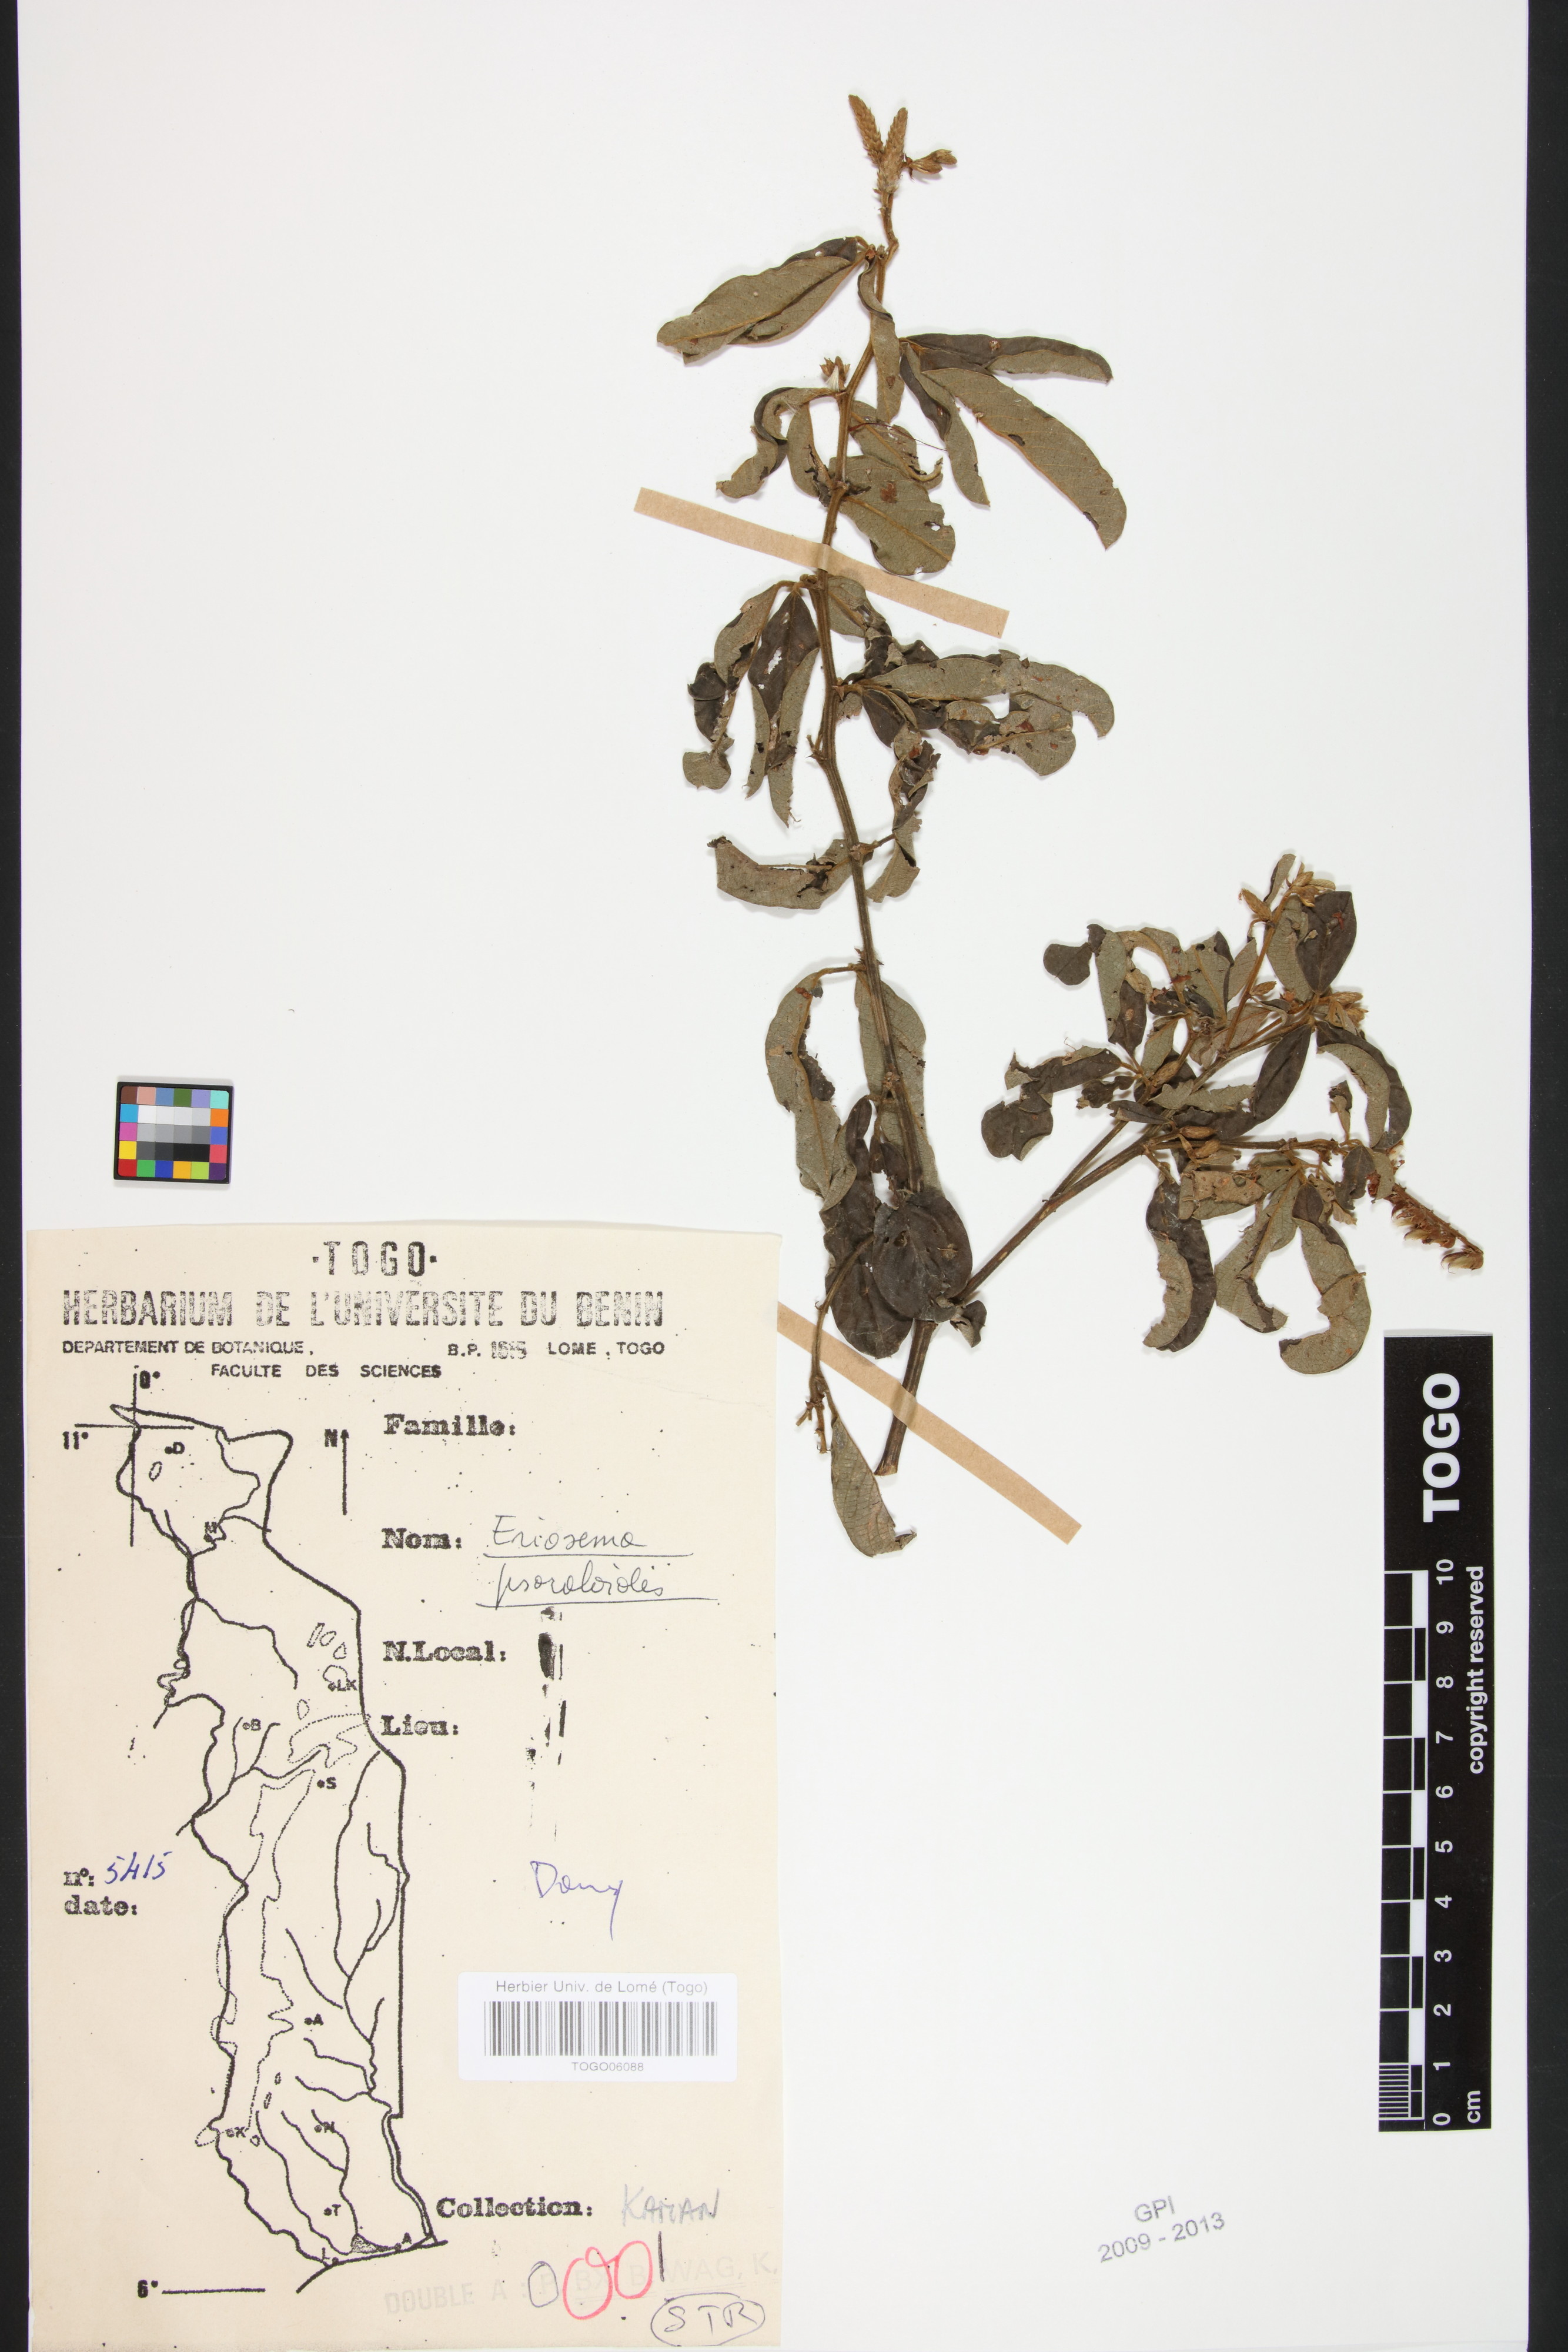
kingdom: Plantae
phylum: Tracheophyta
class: Magnoliopsida
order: Fabales
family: Fabaceae
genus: Eriosema
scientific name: Eriosema psoraleoides
